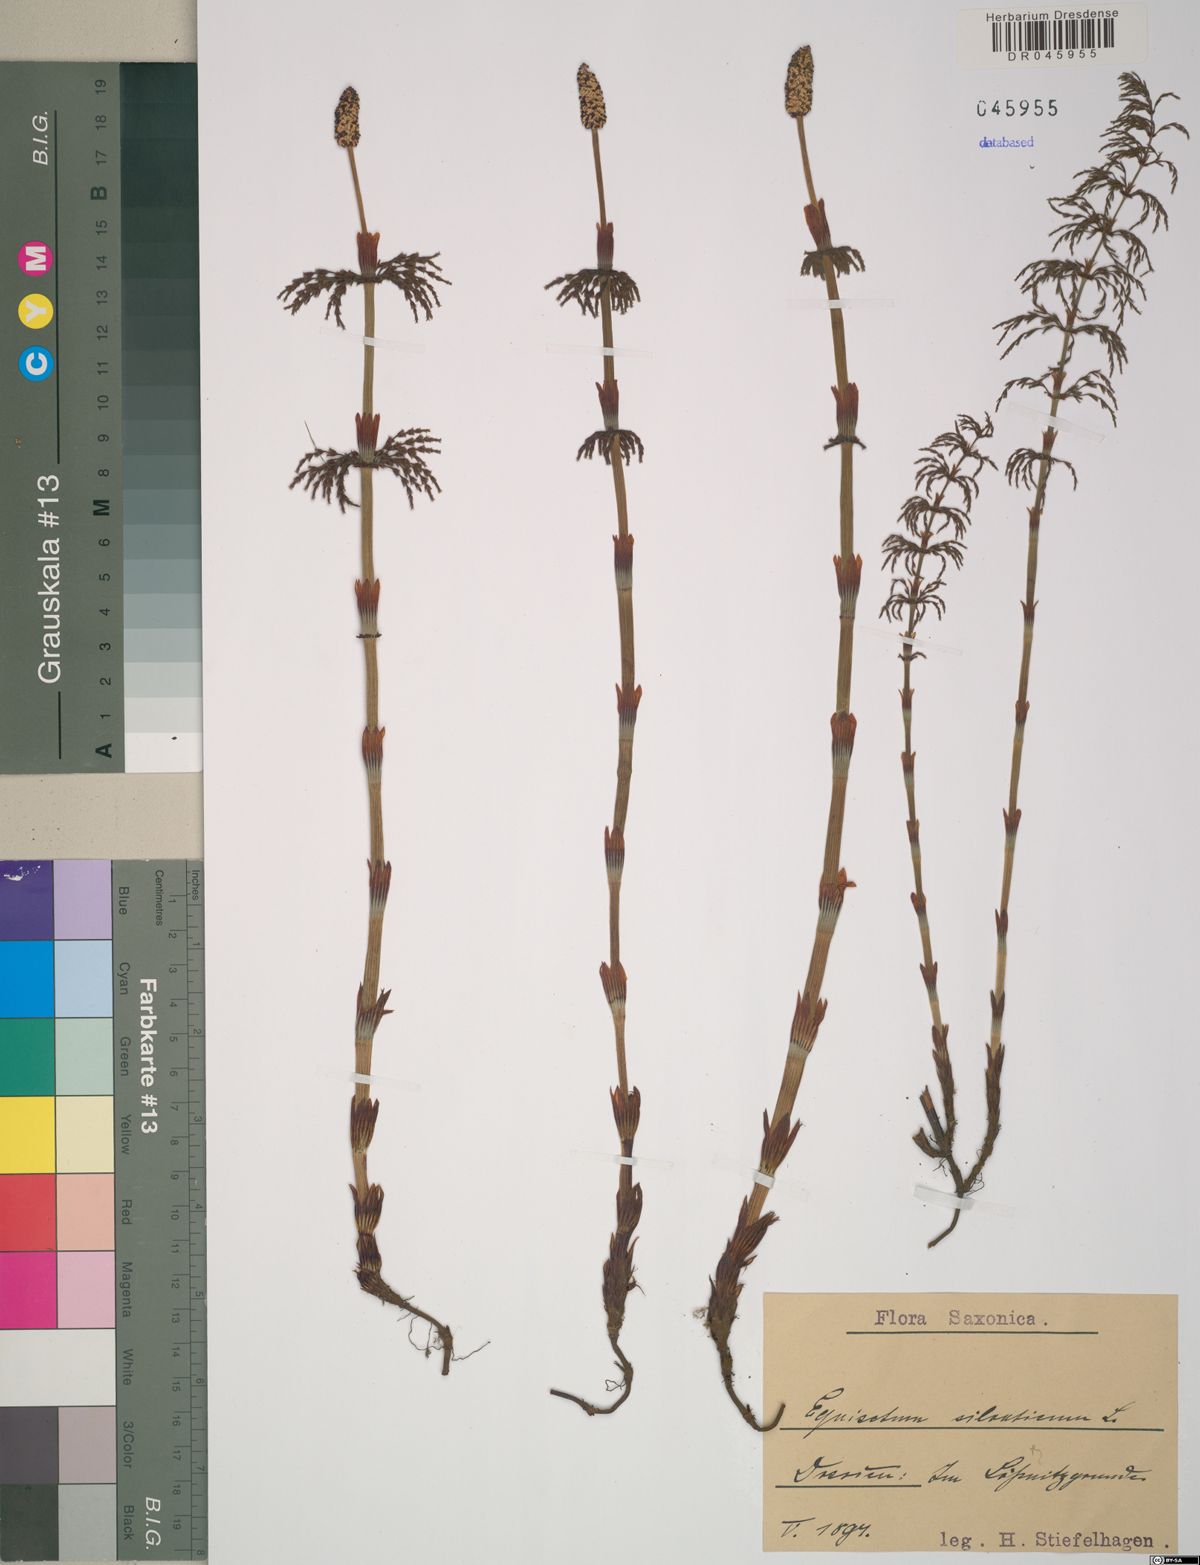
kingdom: Plantae
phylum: Tracheophyta
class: Polypodiopsida
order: Equisetales
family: Equisetaceae
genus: Equisetum
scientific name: Equisetum sylvaticum
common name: Wood horsetail
